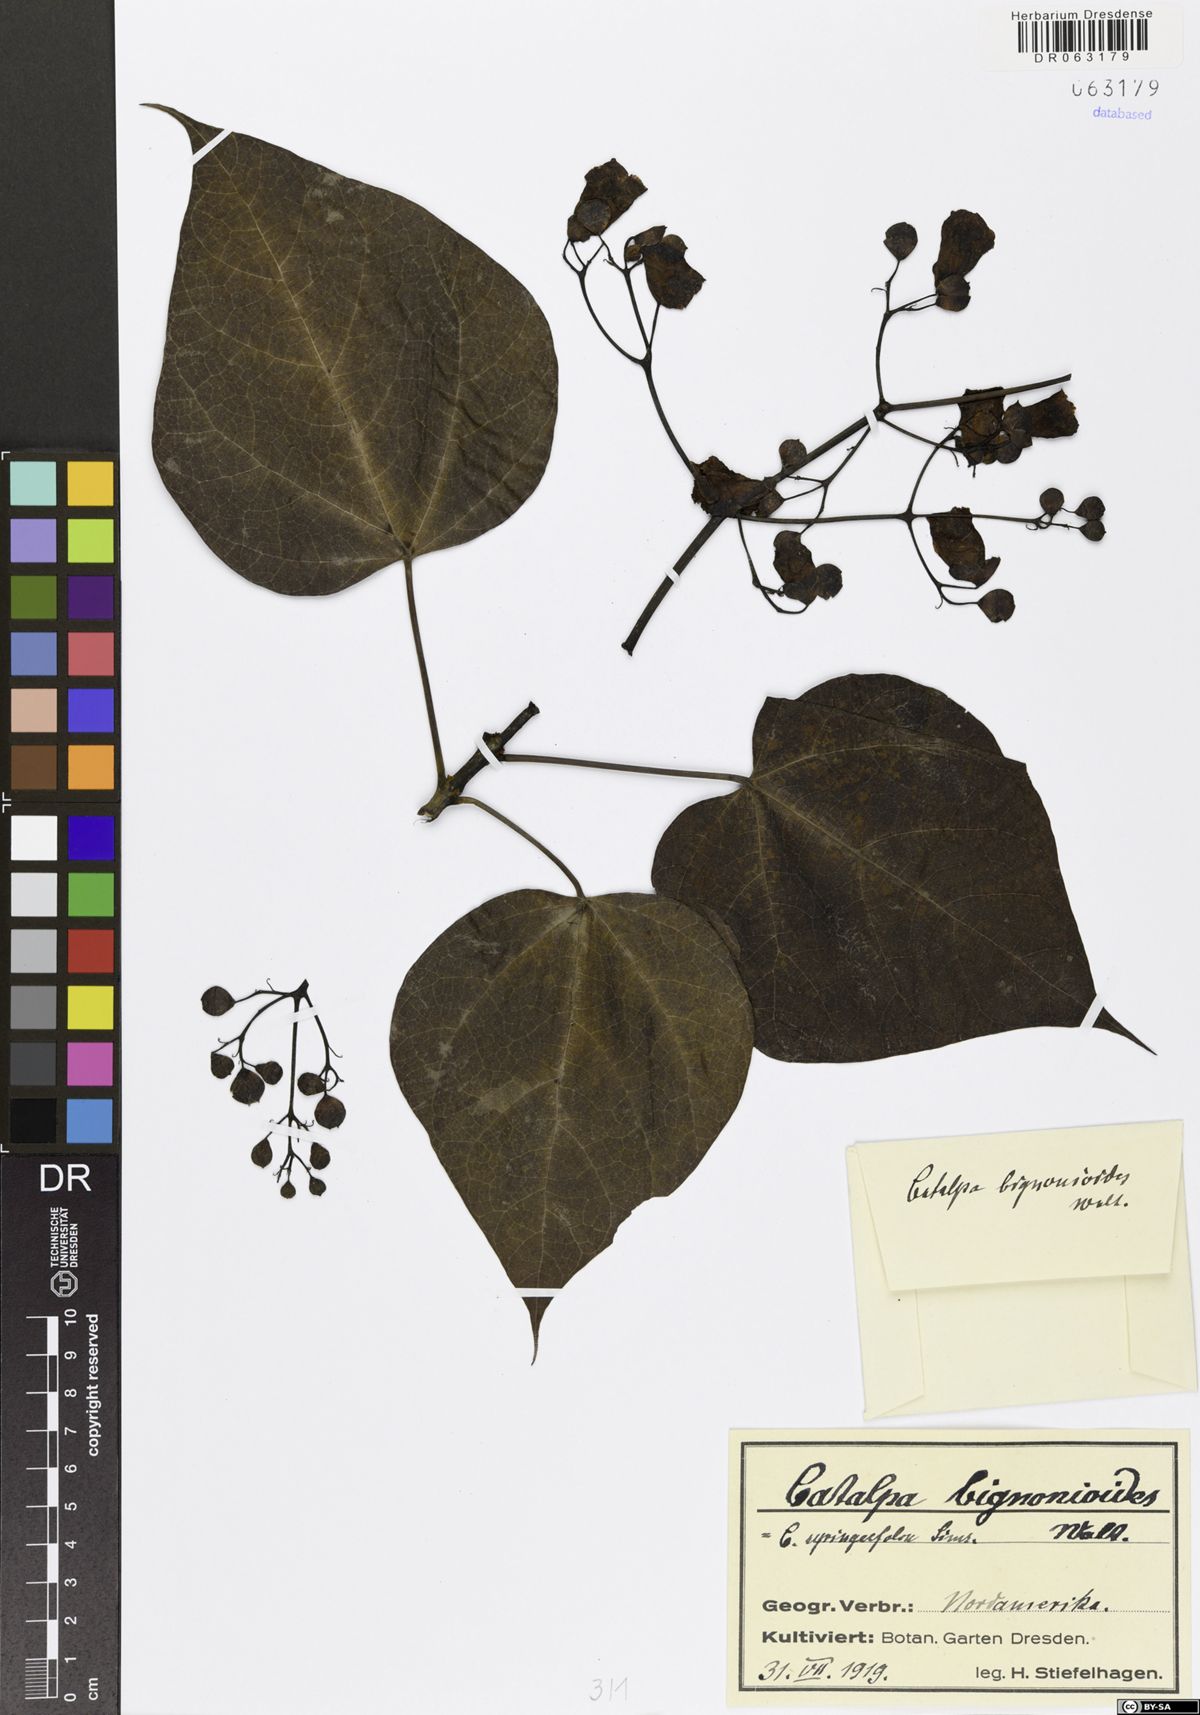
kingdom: Plantae
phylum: Tracheophyta
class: Magnoliopsida
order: Lamiales
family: Bignoniaceae
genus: Catalpa
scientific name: Catalpa bignonioides
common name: Southern catalpa
